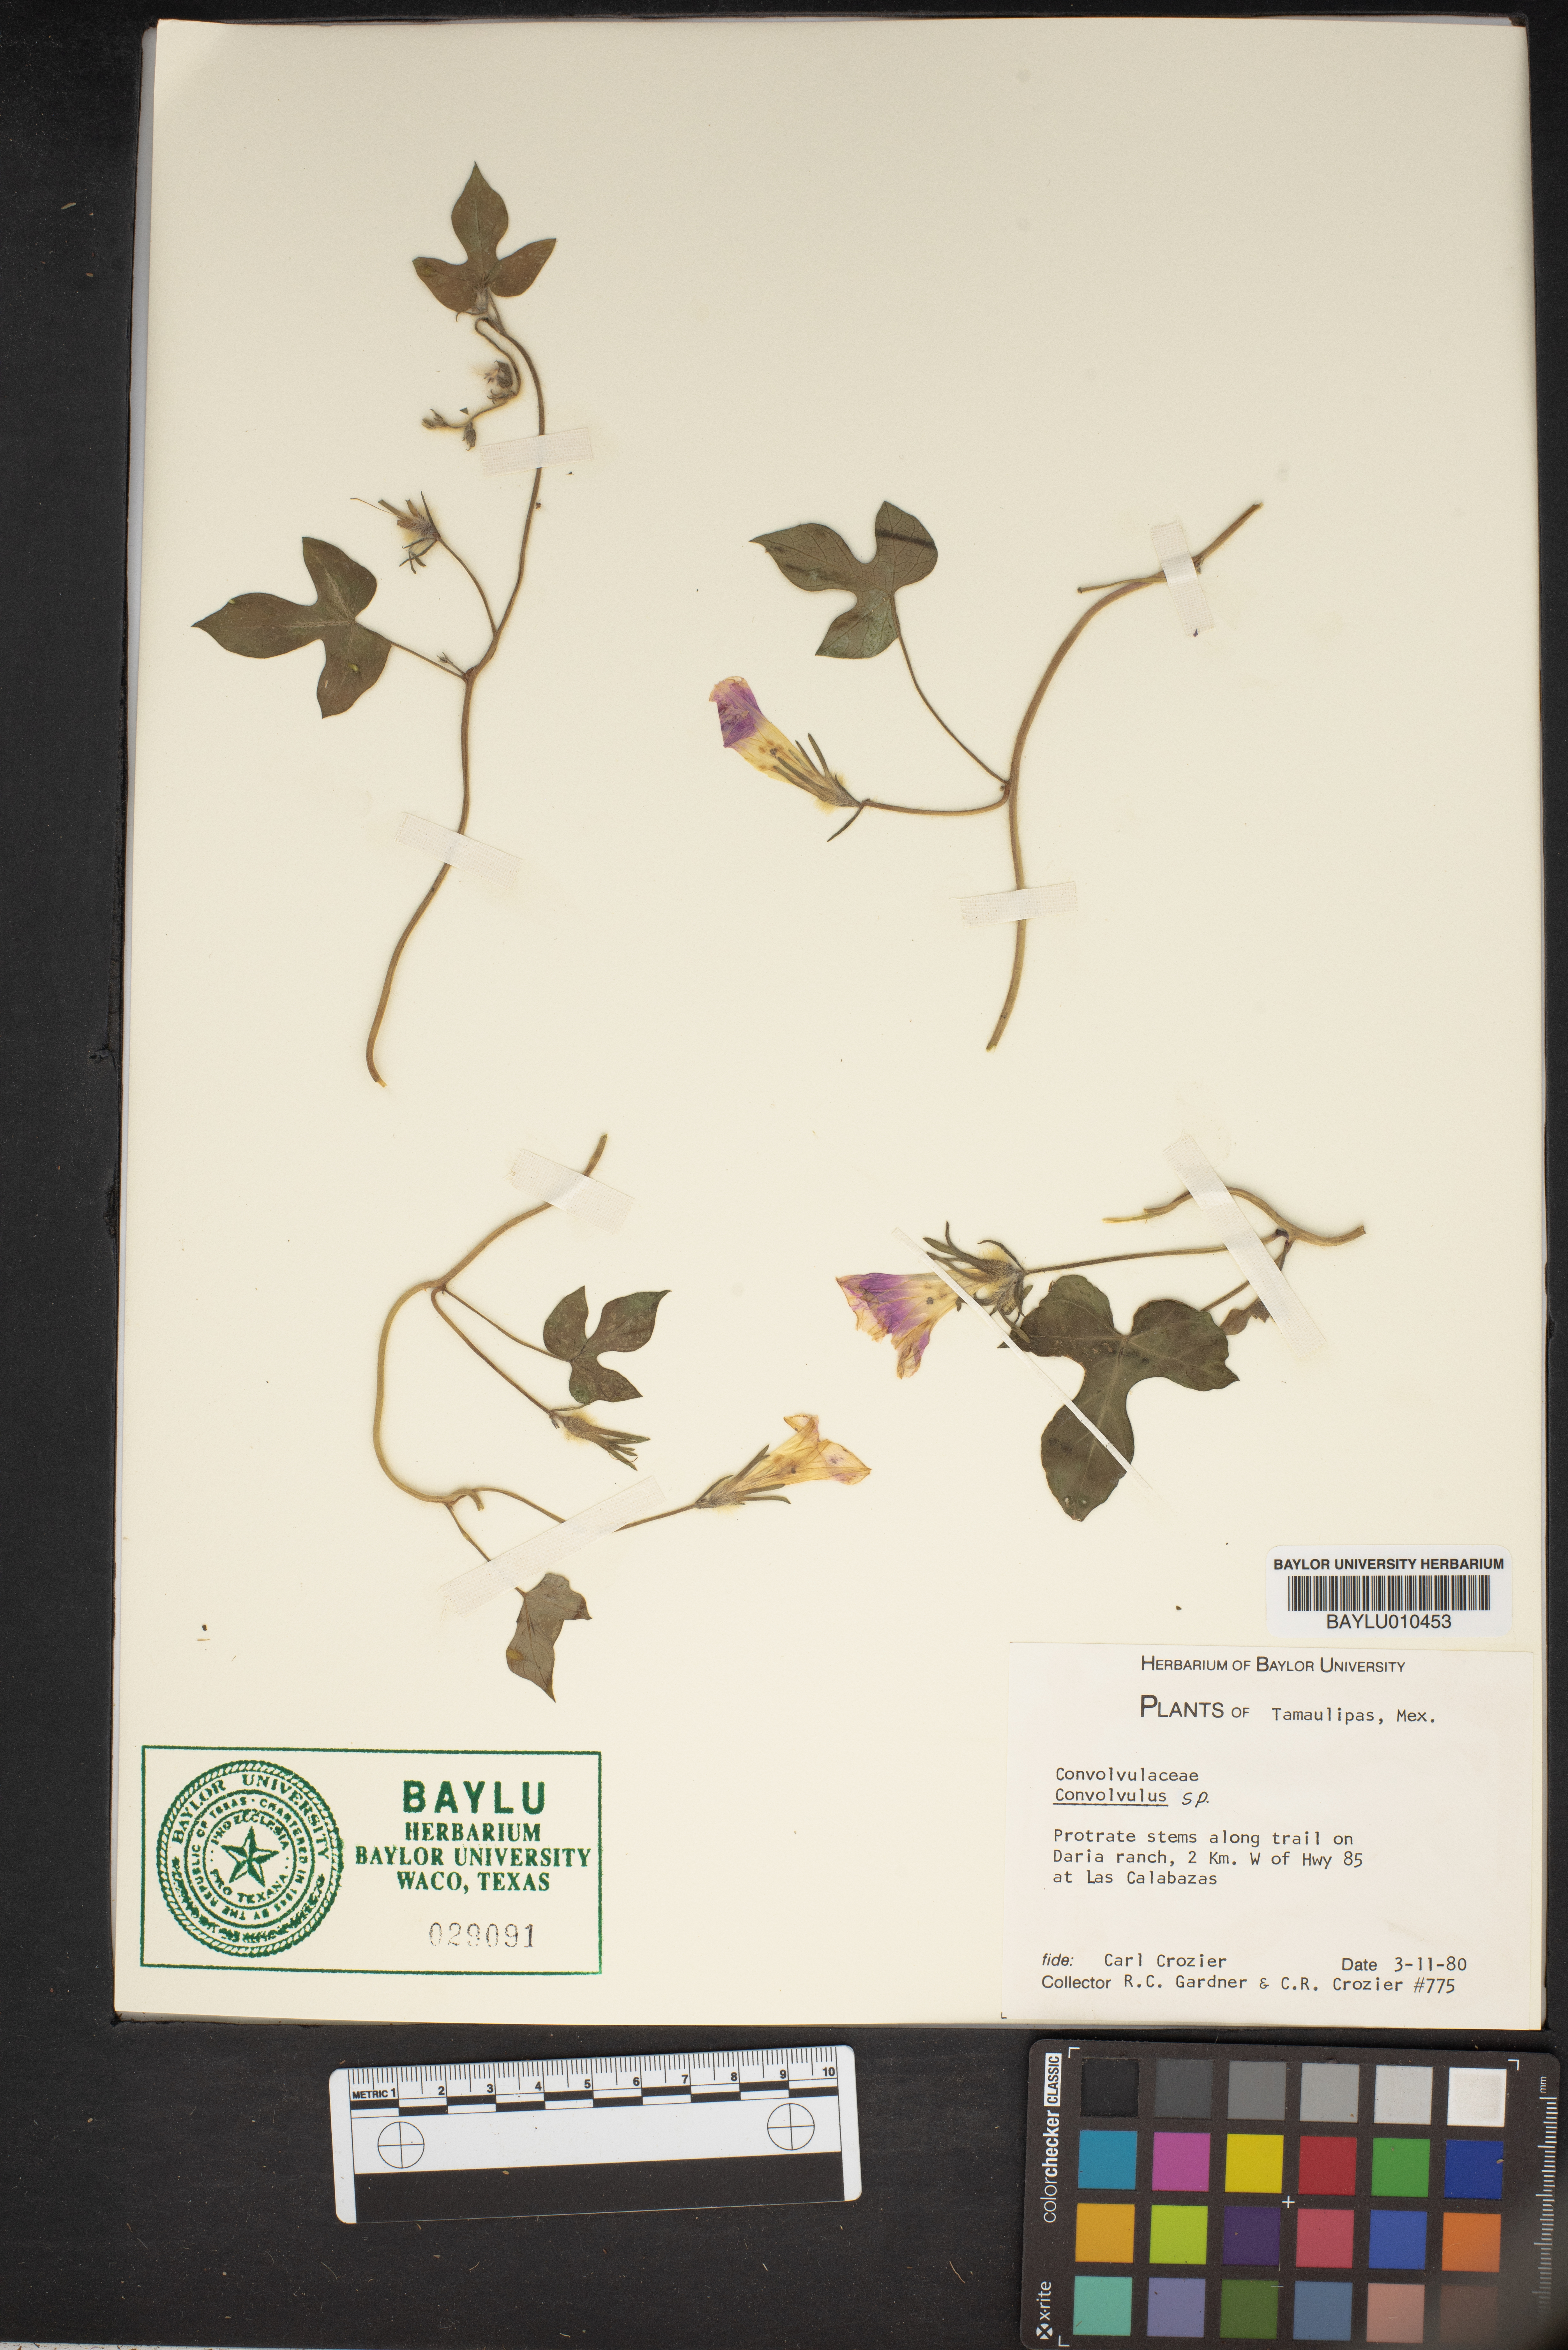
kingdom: Plantae
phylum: Tracheophyta
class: Magnoliopsida
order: Solanales
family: Convolvulaceae
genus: Convolvulus
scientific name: Convolvulus
